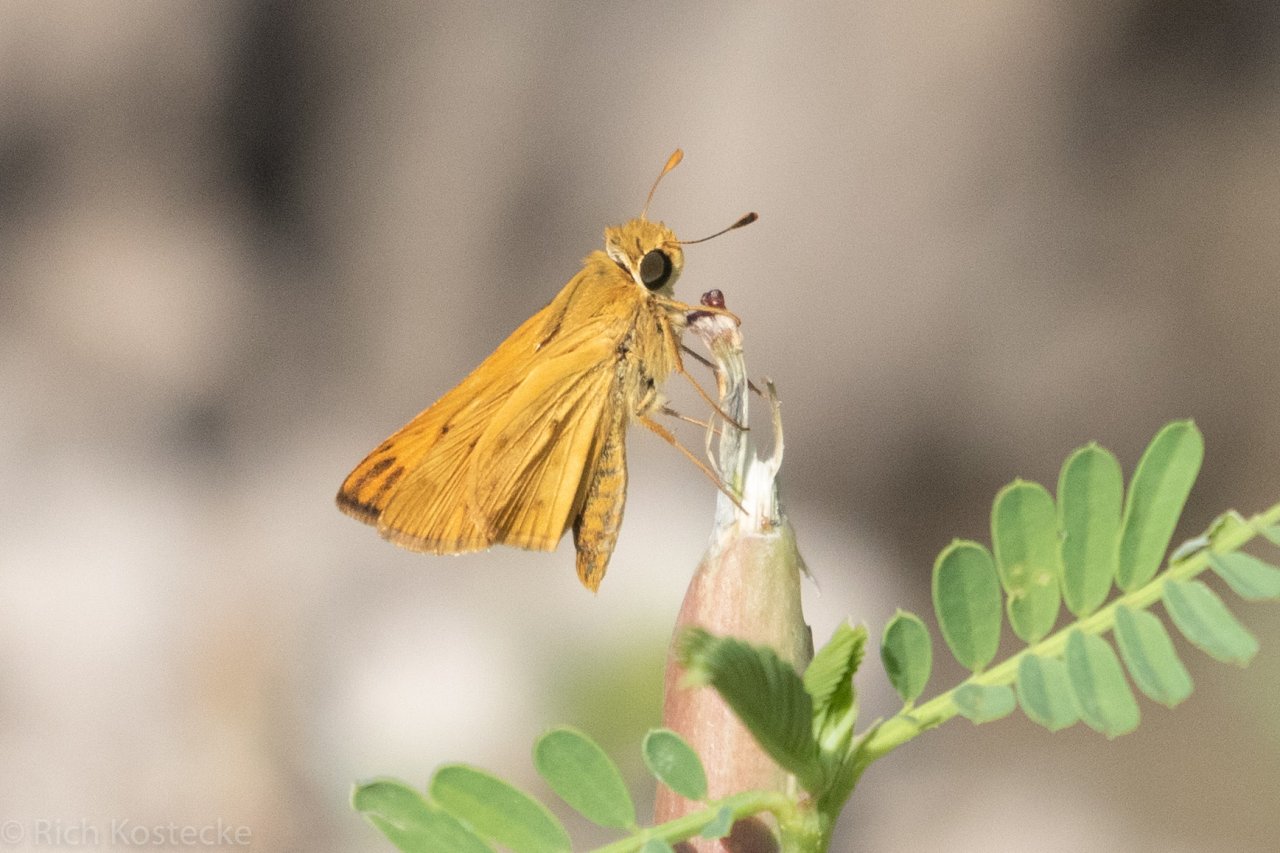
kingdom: Animalia
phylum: Arthropoda
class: Insecta
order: Lepidoptera
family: Hesperiidae
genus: Hylephila
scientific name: Hylephila phyleus
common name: Fiery Skipper
